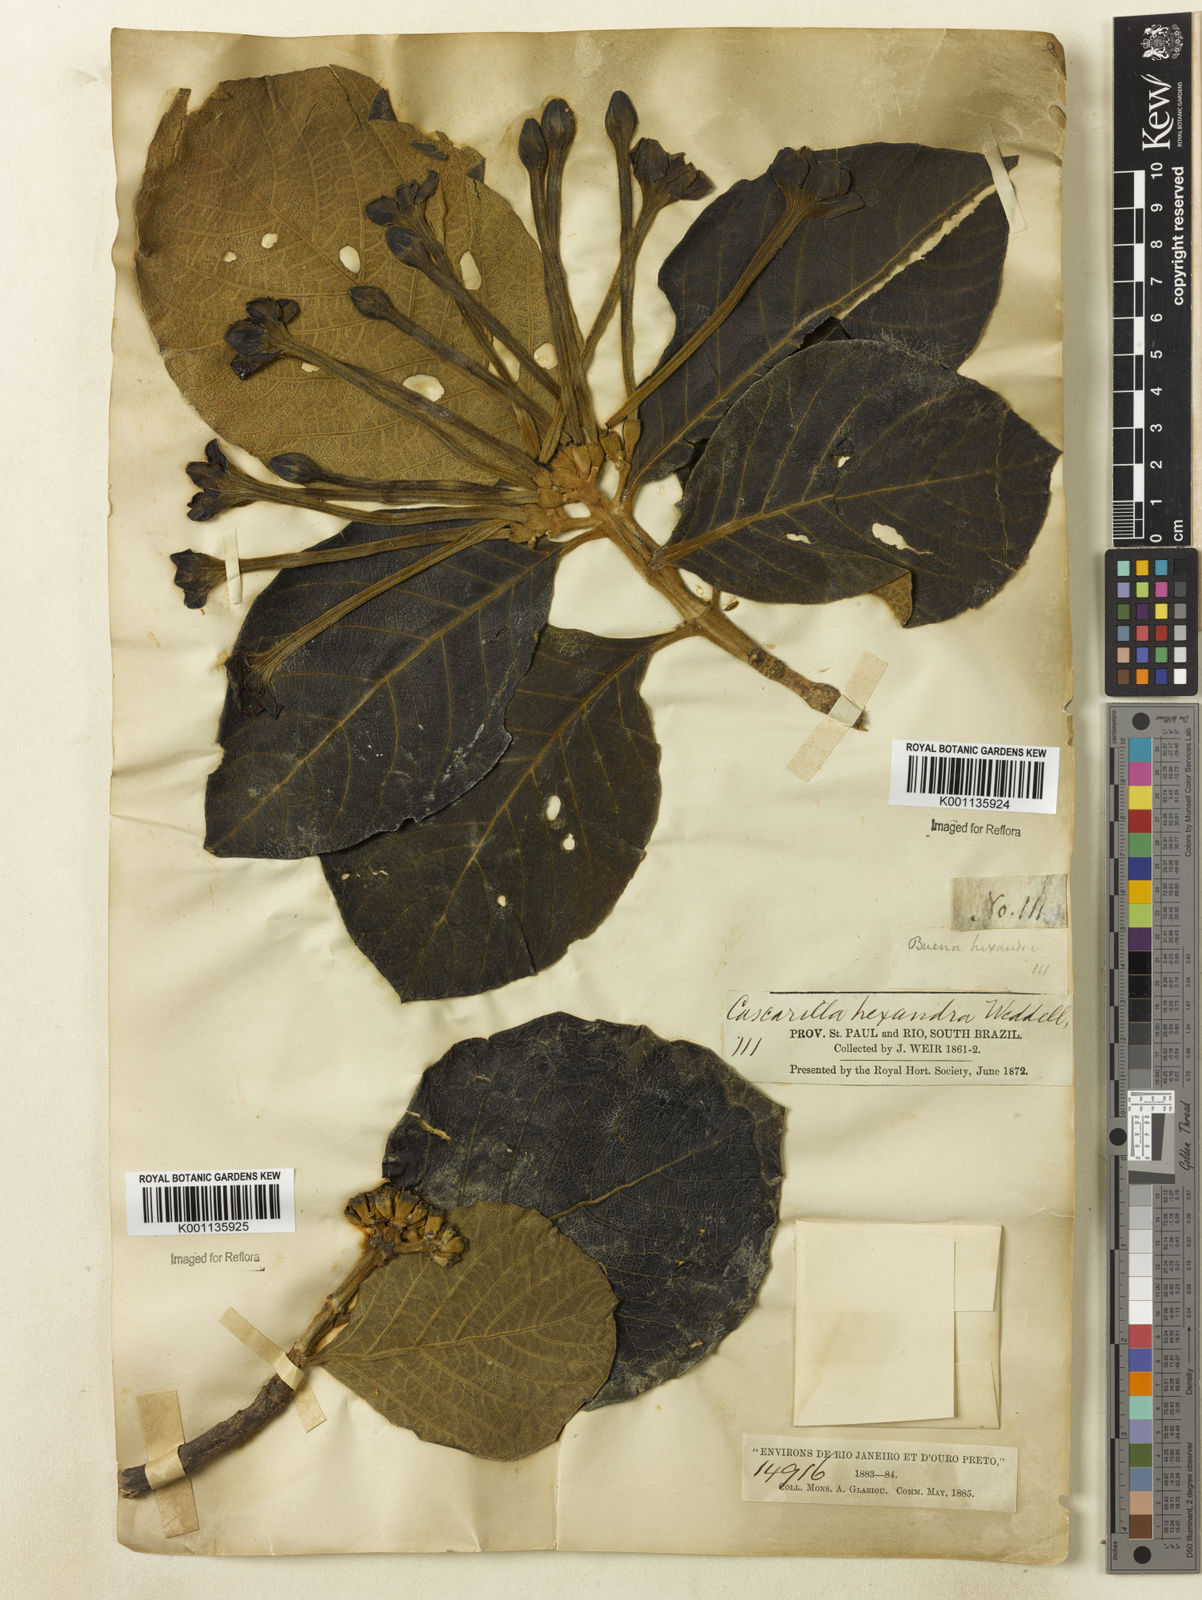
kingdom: Plantae
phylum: Tracheophyta
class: Magnoliopsida
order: Gentianales
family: Rubiaceae
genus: Tocoyena
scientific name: Tocoyena formosa
